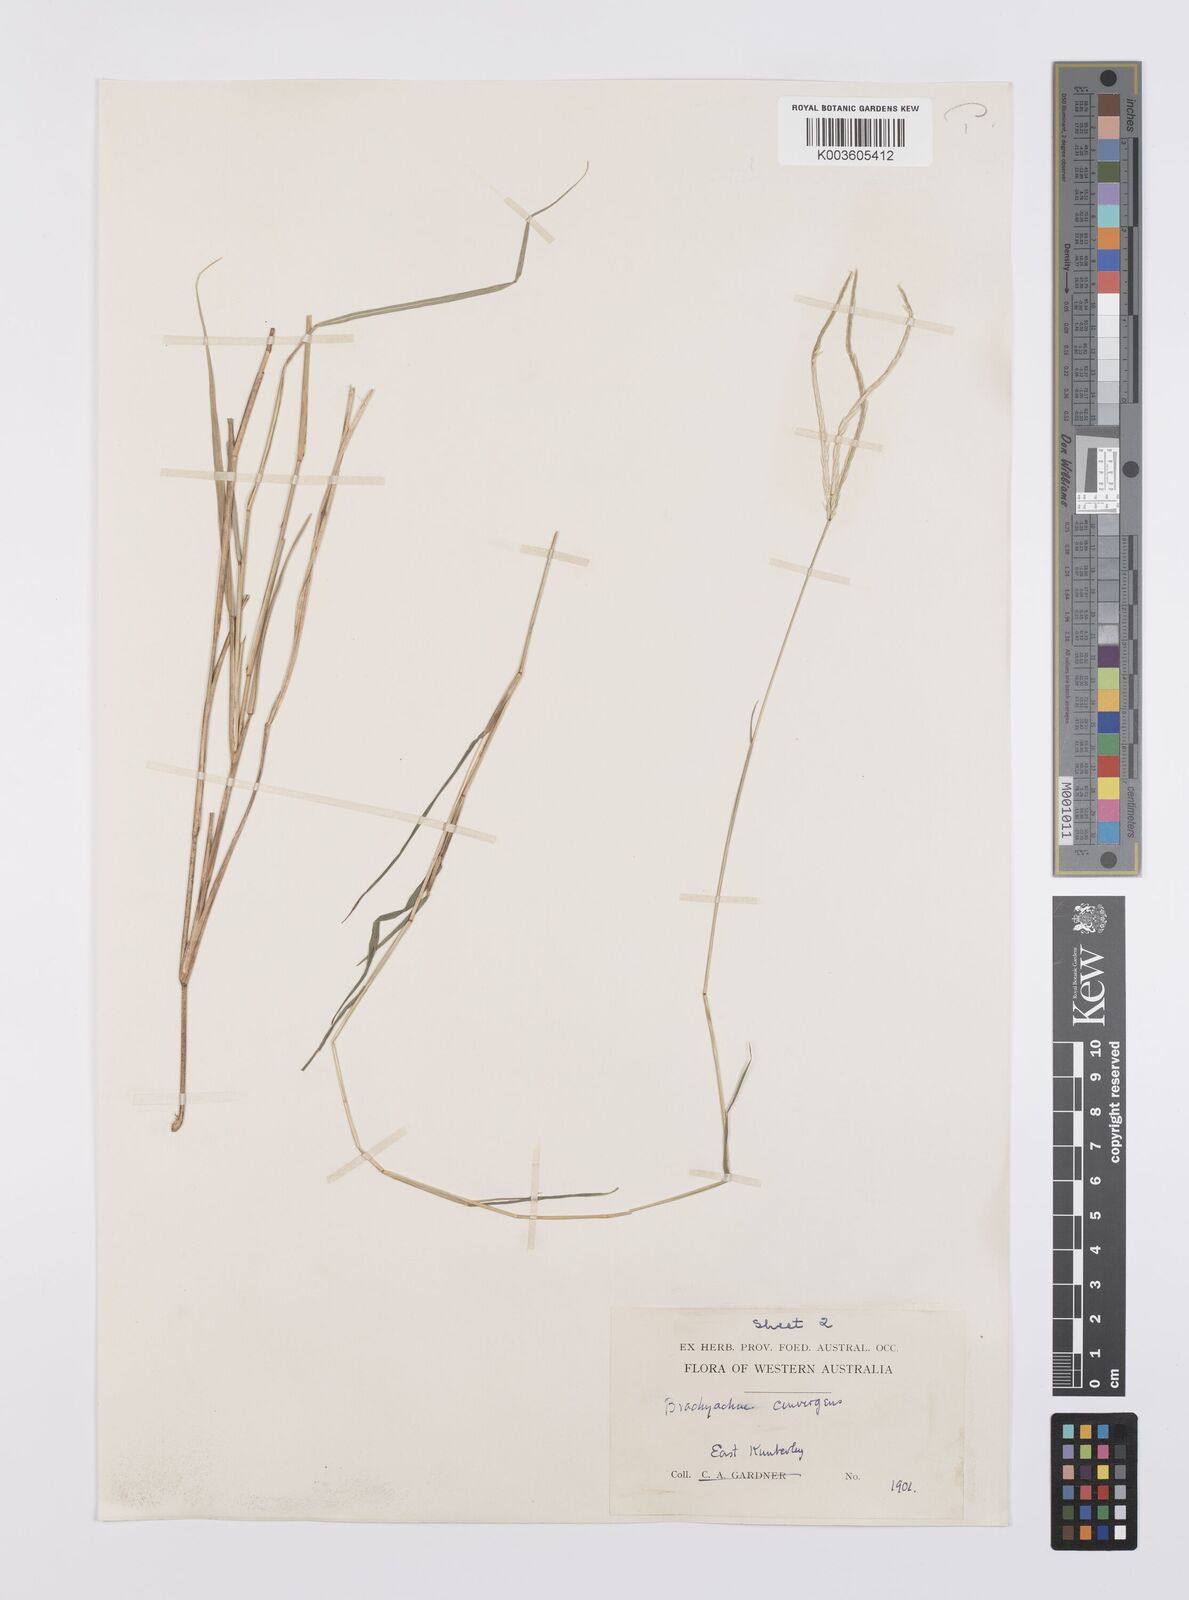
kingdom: Plantae
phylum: Tracheophyta
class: Liliopsida
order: Poales
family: Poaceae
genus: Cynodon
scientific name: Cynodon
